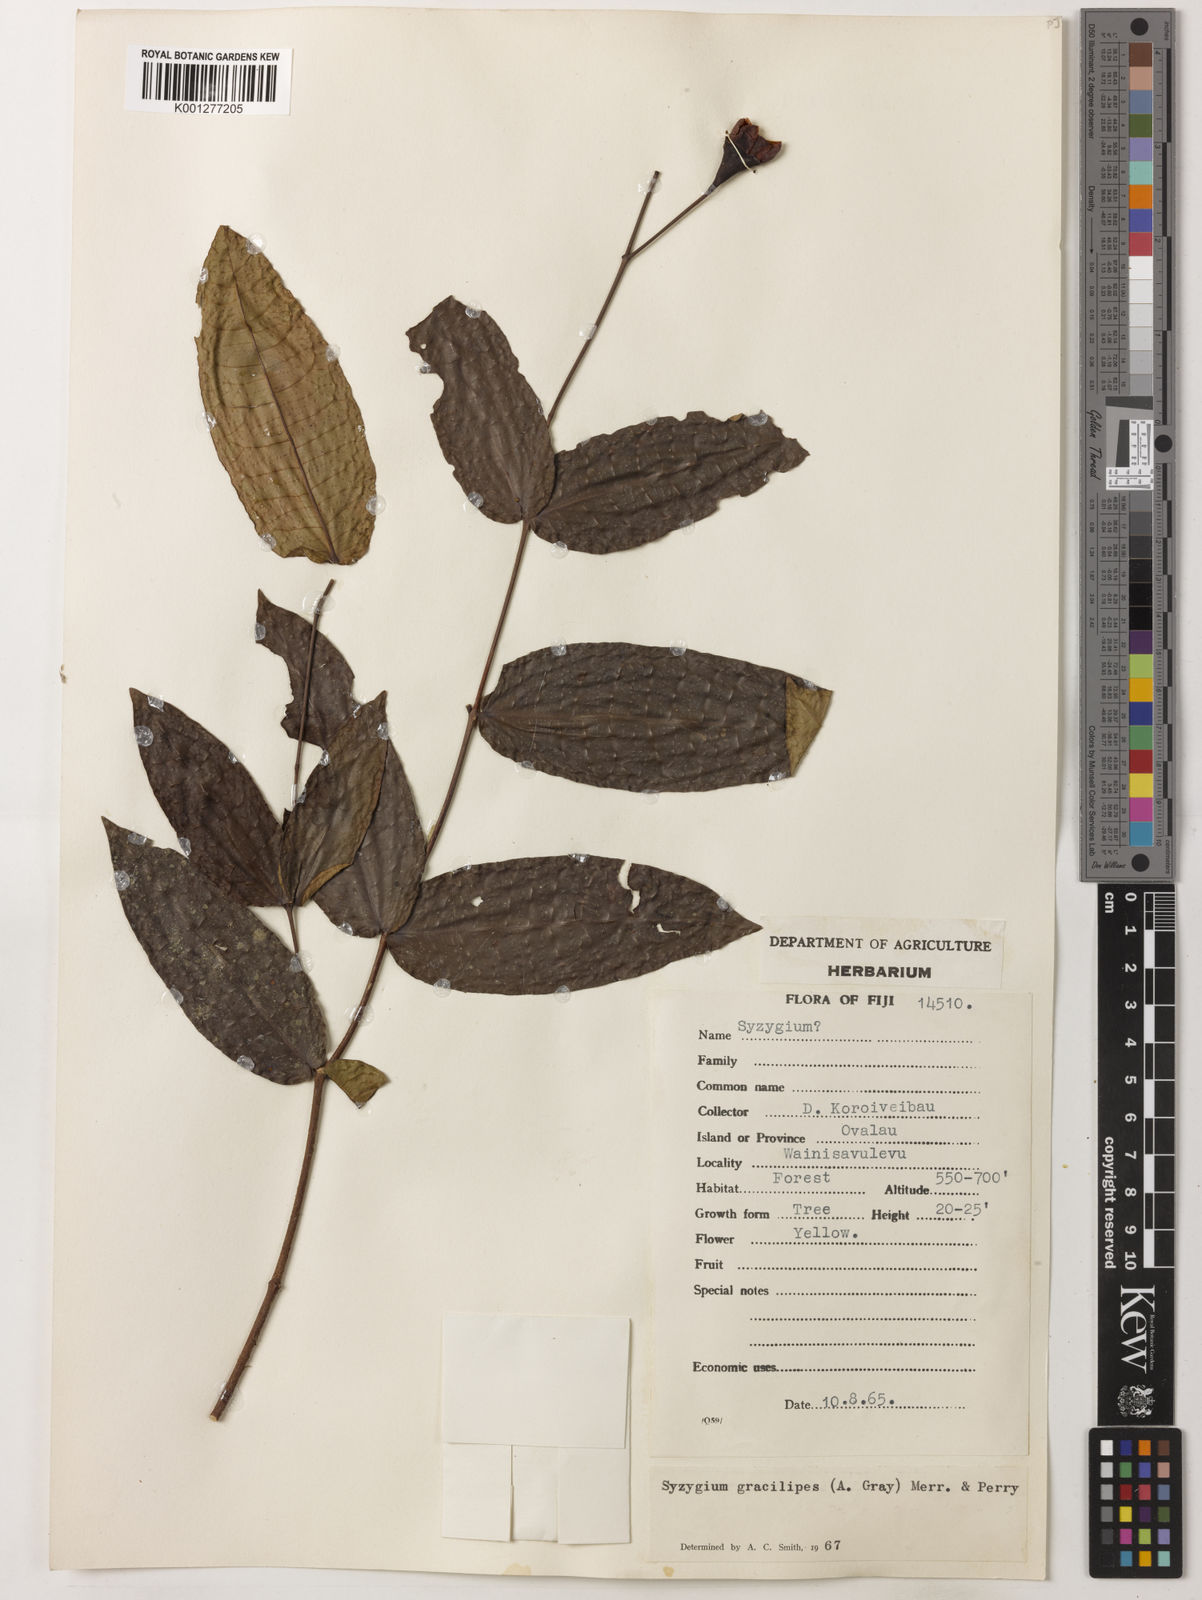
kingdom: Plantae
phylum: Tracheophyta
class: Magnoliopsida
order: Myrtales
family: Myrtaceae
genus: Syzygium
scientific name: Syzygium gracilipes
